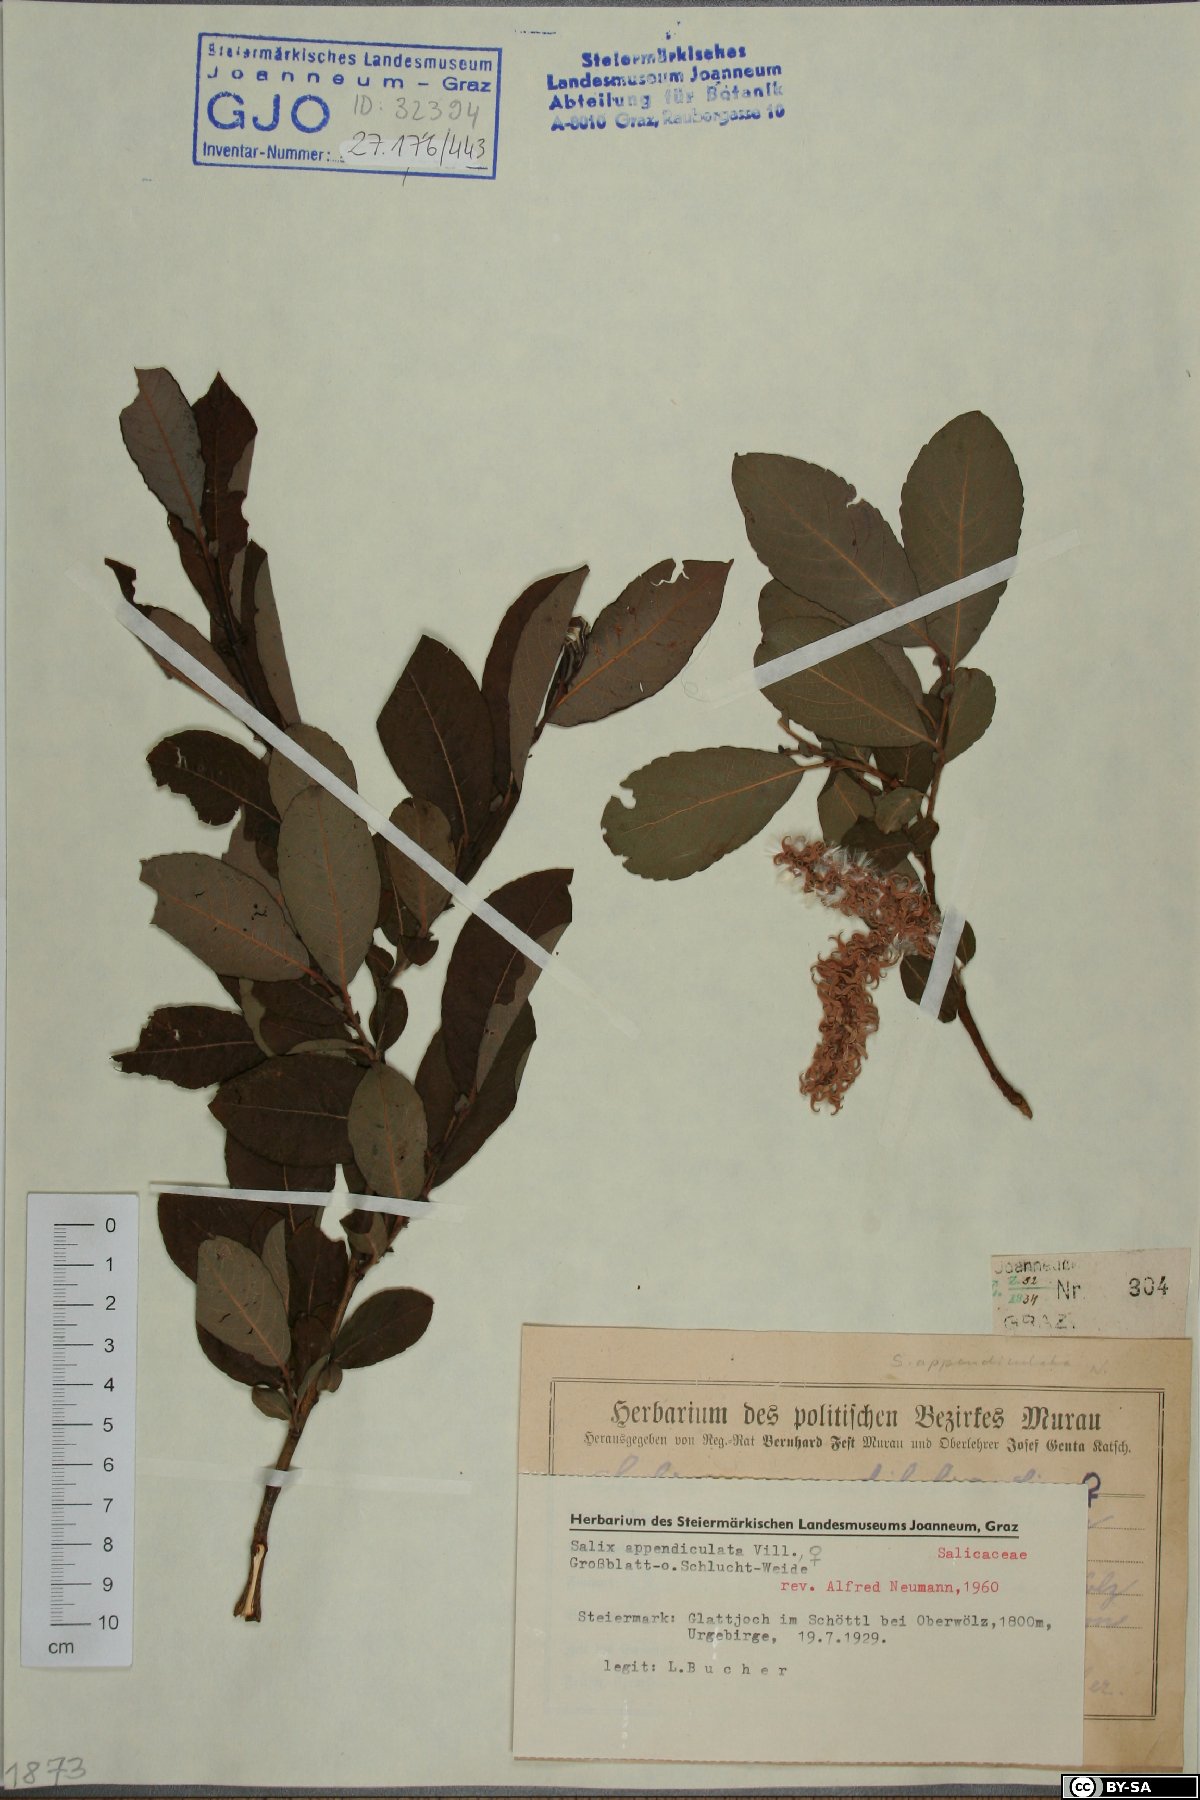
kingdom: Plantae
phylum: Tracheophyta
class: Magnoliopsida
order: Malpighiales
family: Salicaceae
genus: Salix
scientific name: Salix appendiculata
